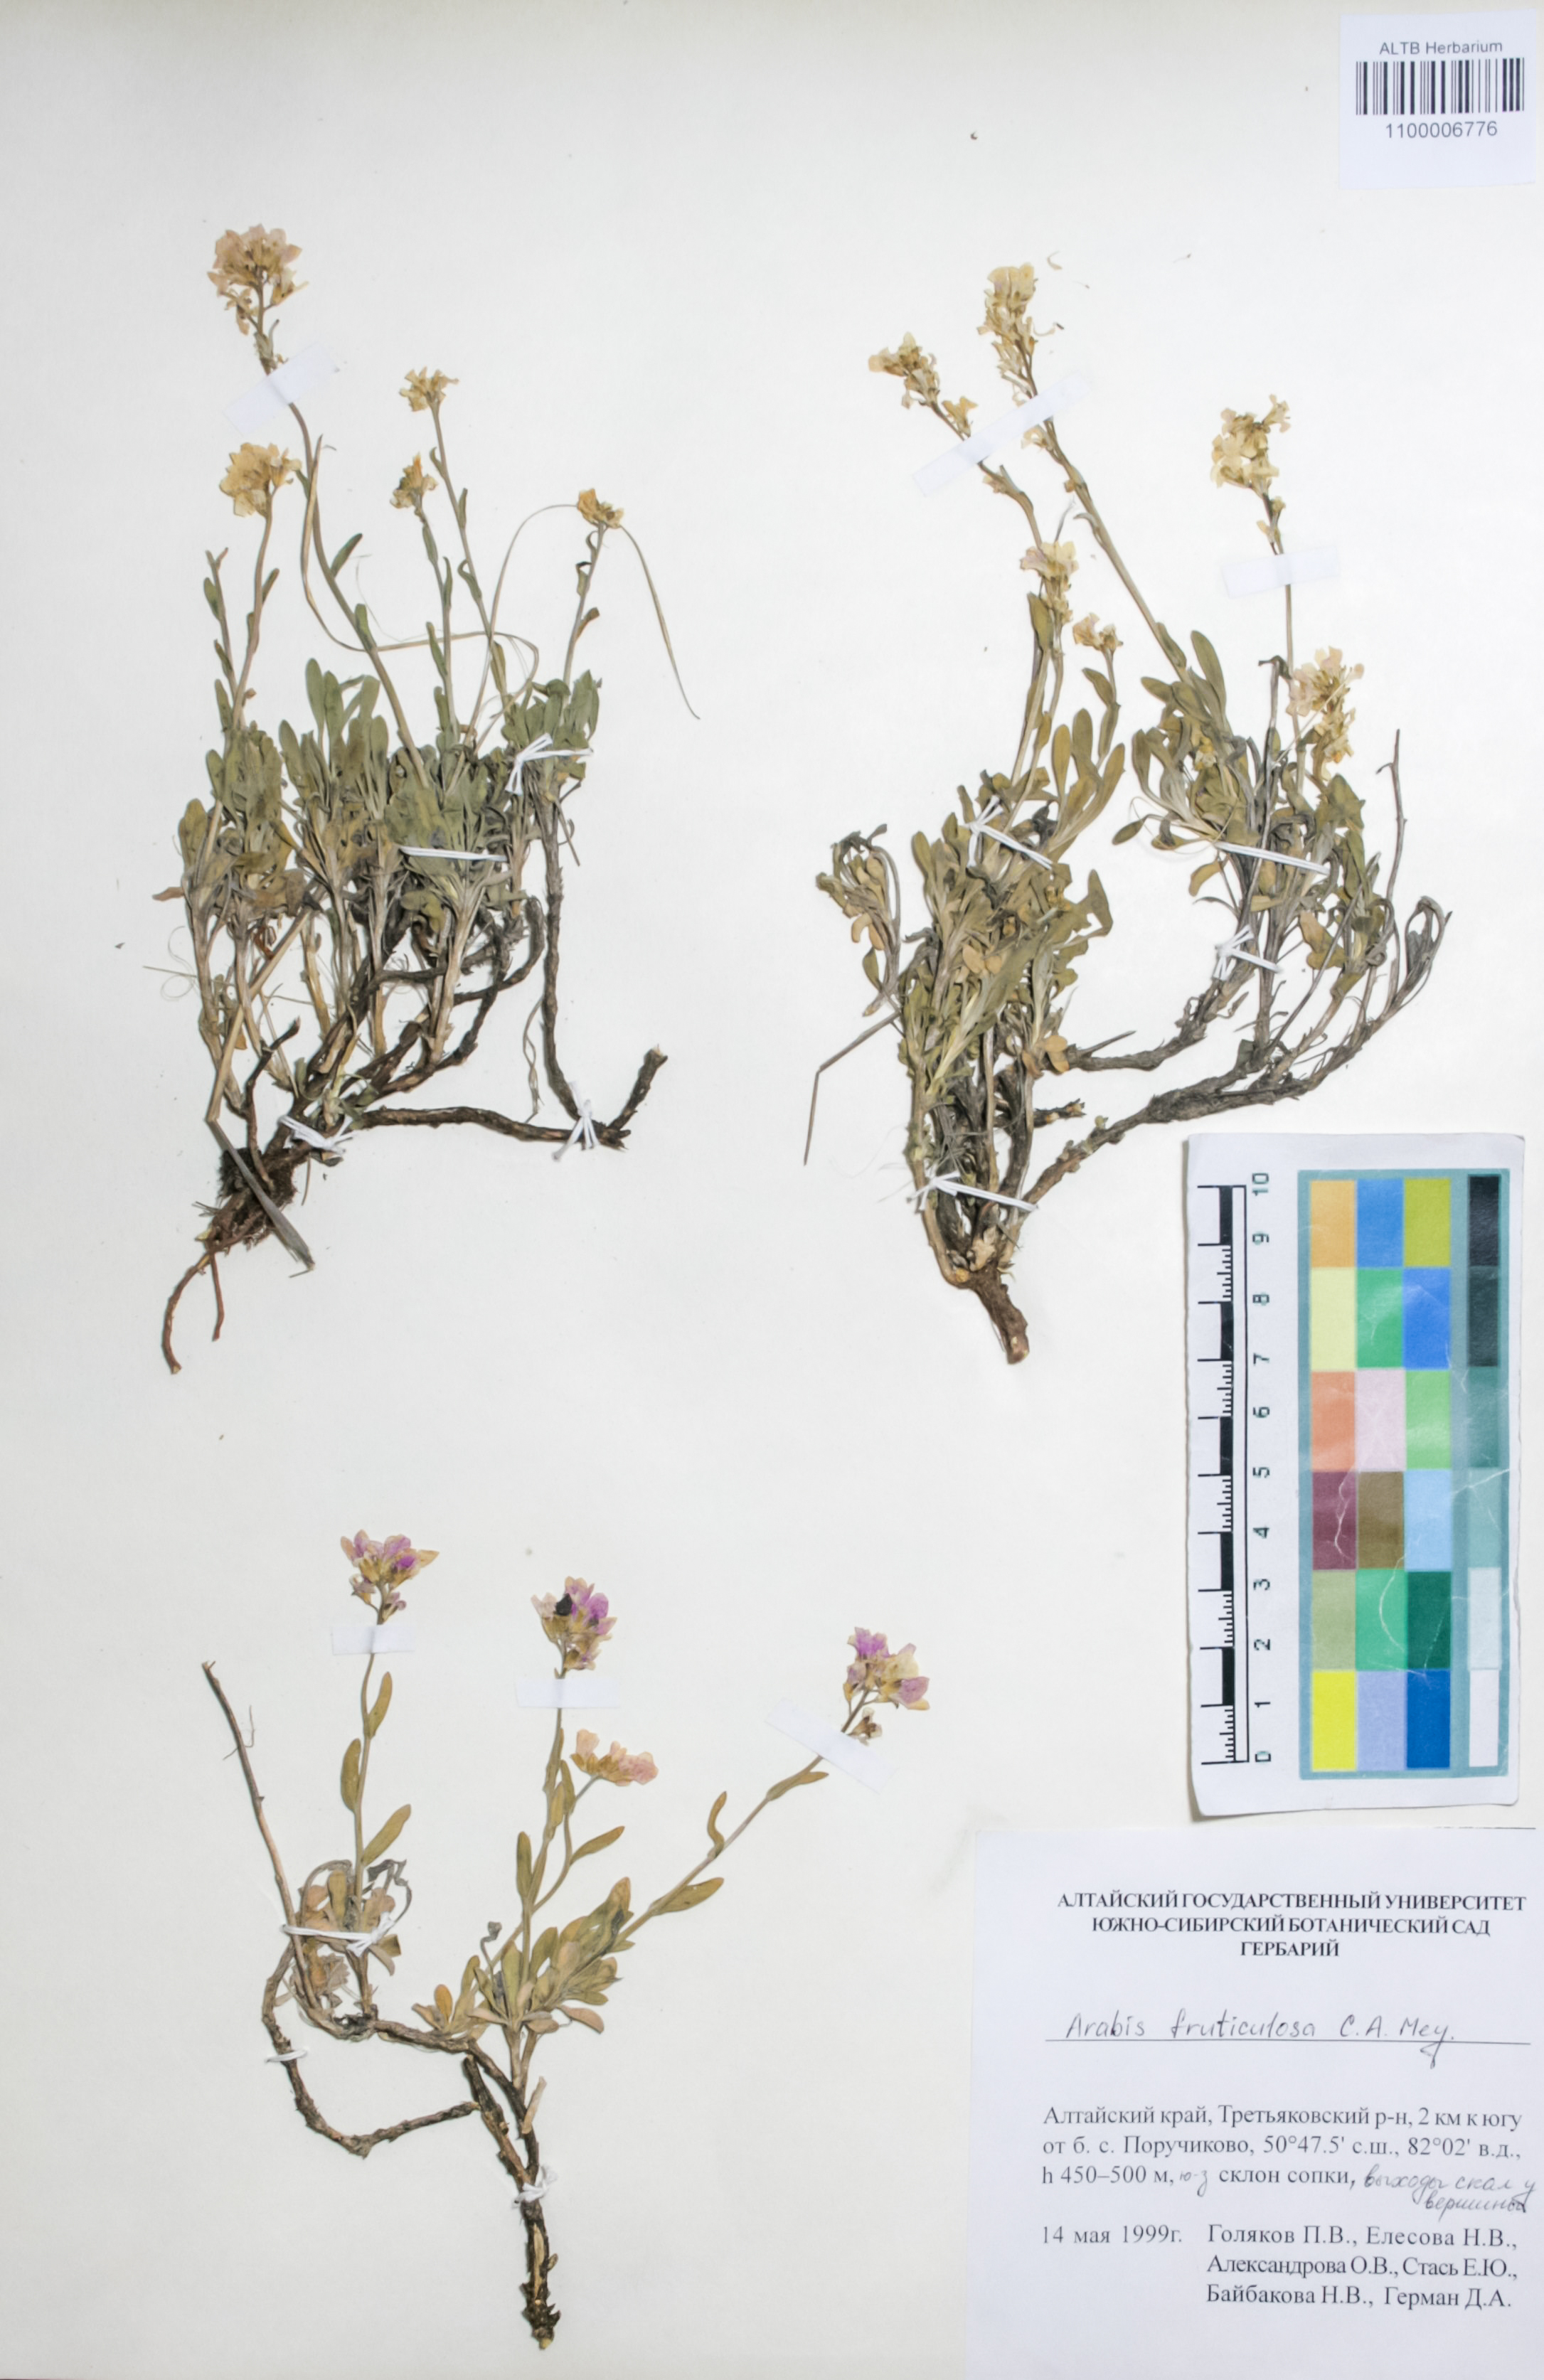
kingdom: Plantae
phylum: Tracheophyta
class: Magnoliopsida
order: Brassicales
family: Brassicaceae
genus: Dendroarabis
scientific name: Dendroarabis fruticulosa
